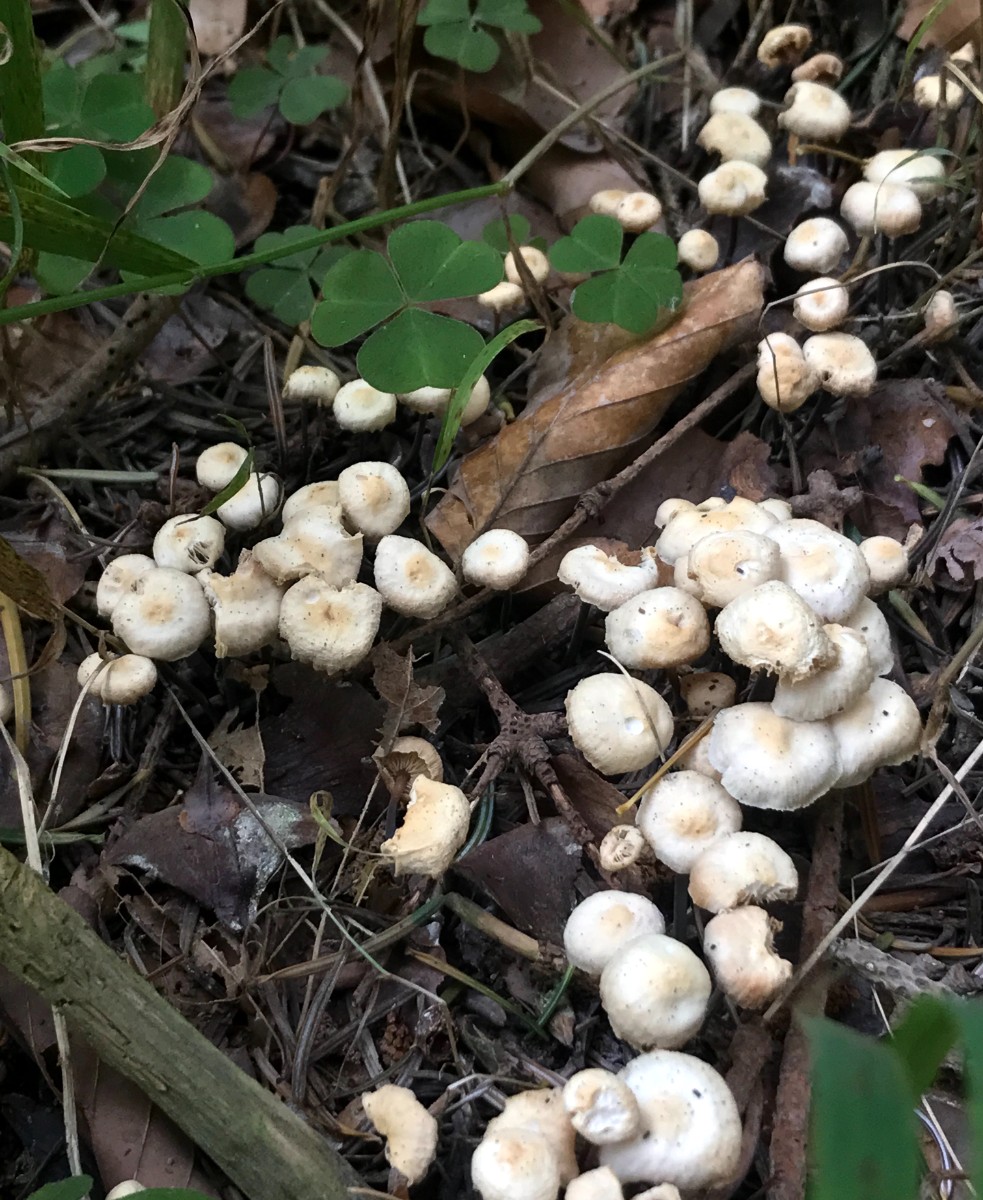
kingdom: Fungi
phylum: Basidiomycota
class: Agaricomycetes
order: Agaricales
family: Omphalotaceae
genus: Paragymnopus
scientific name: Paragymnopus perforans
